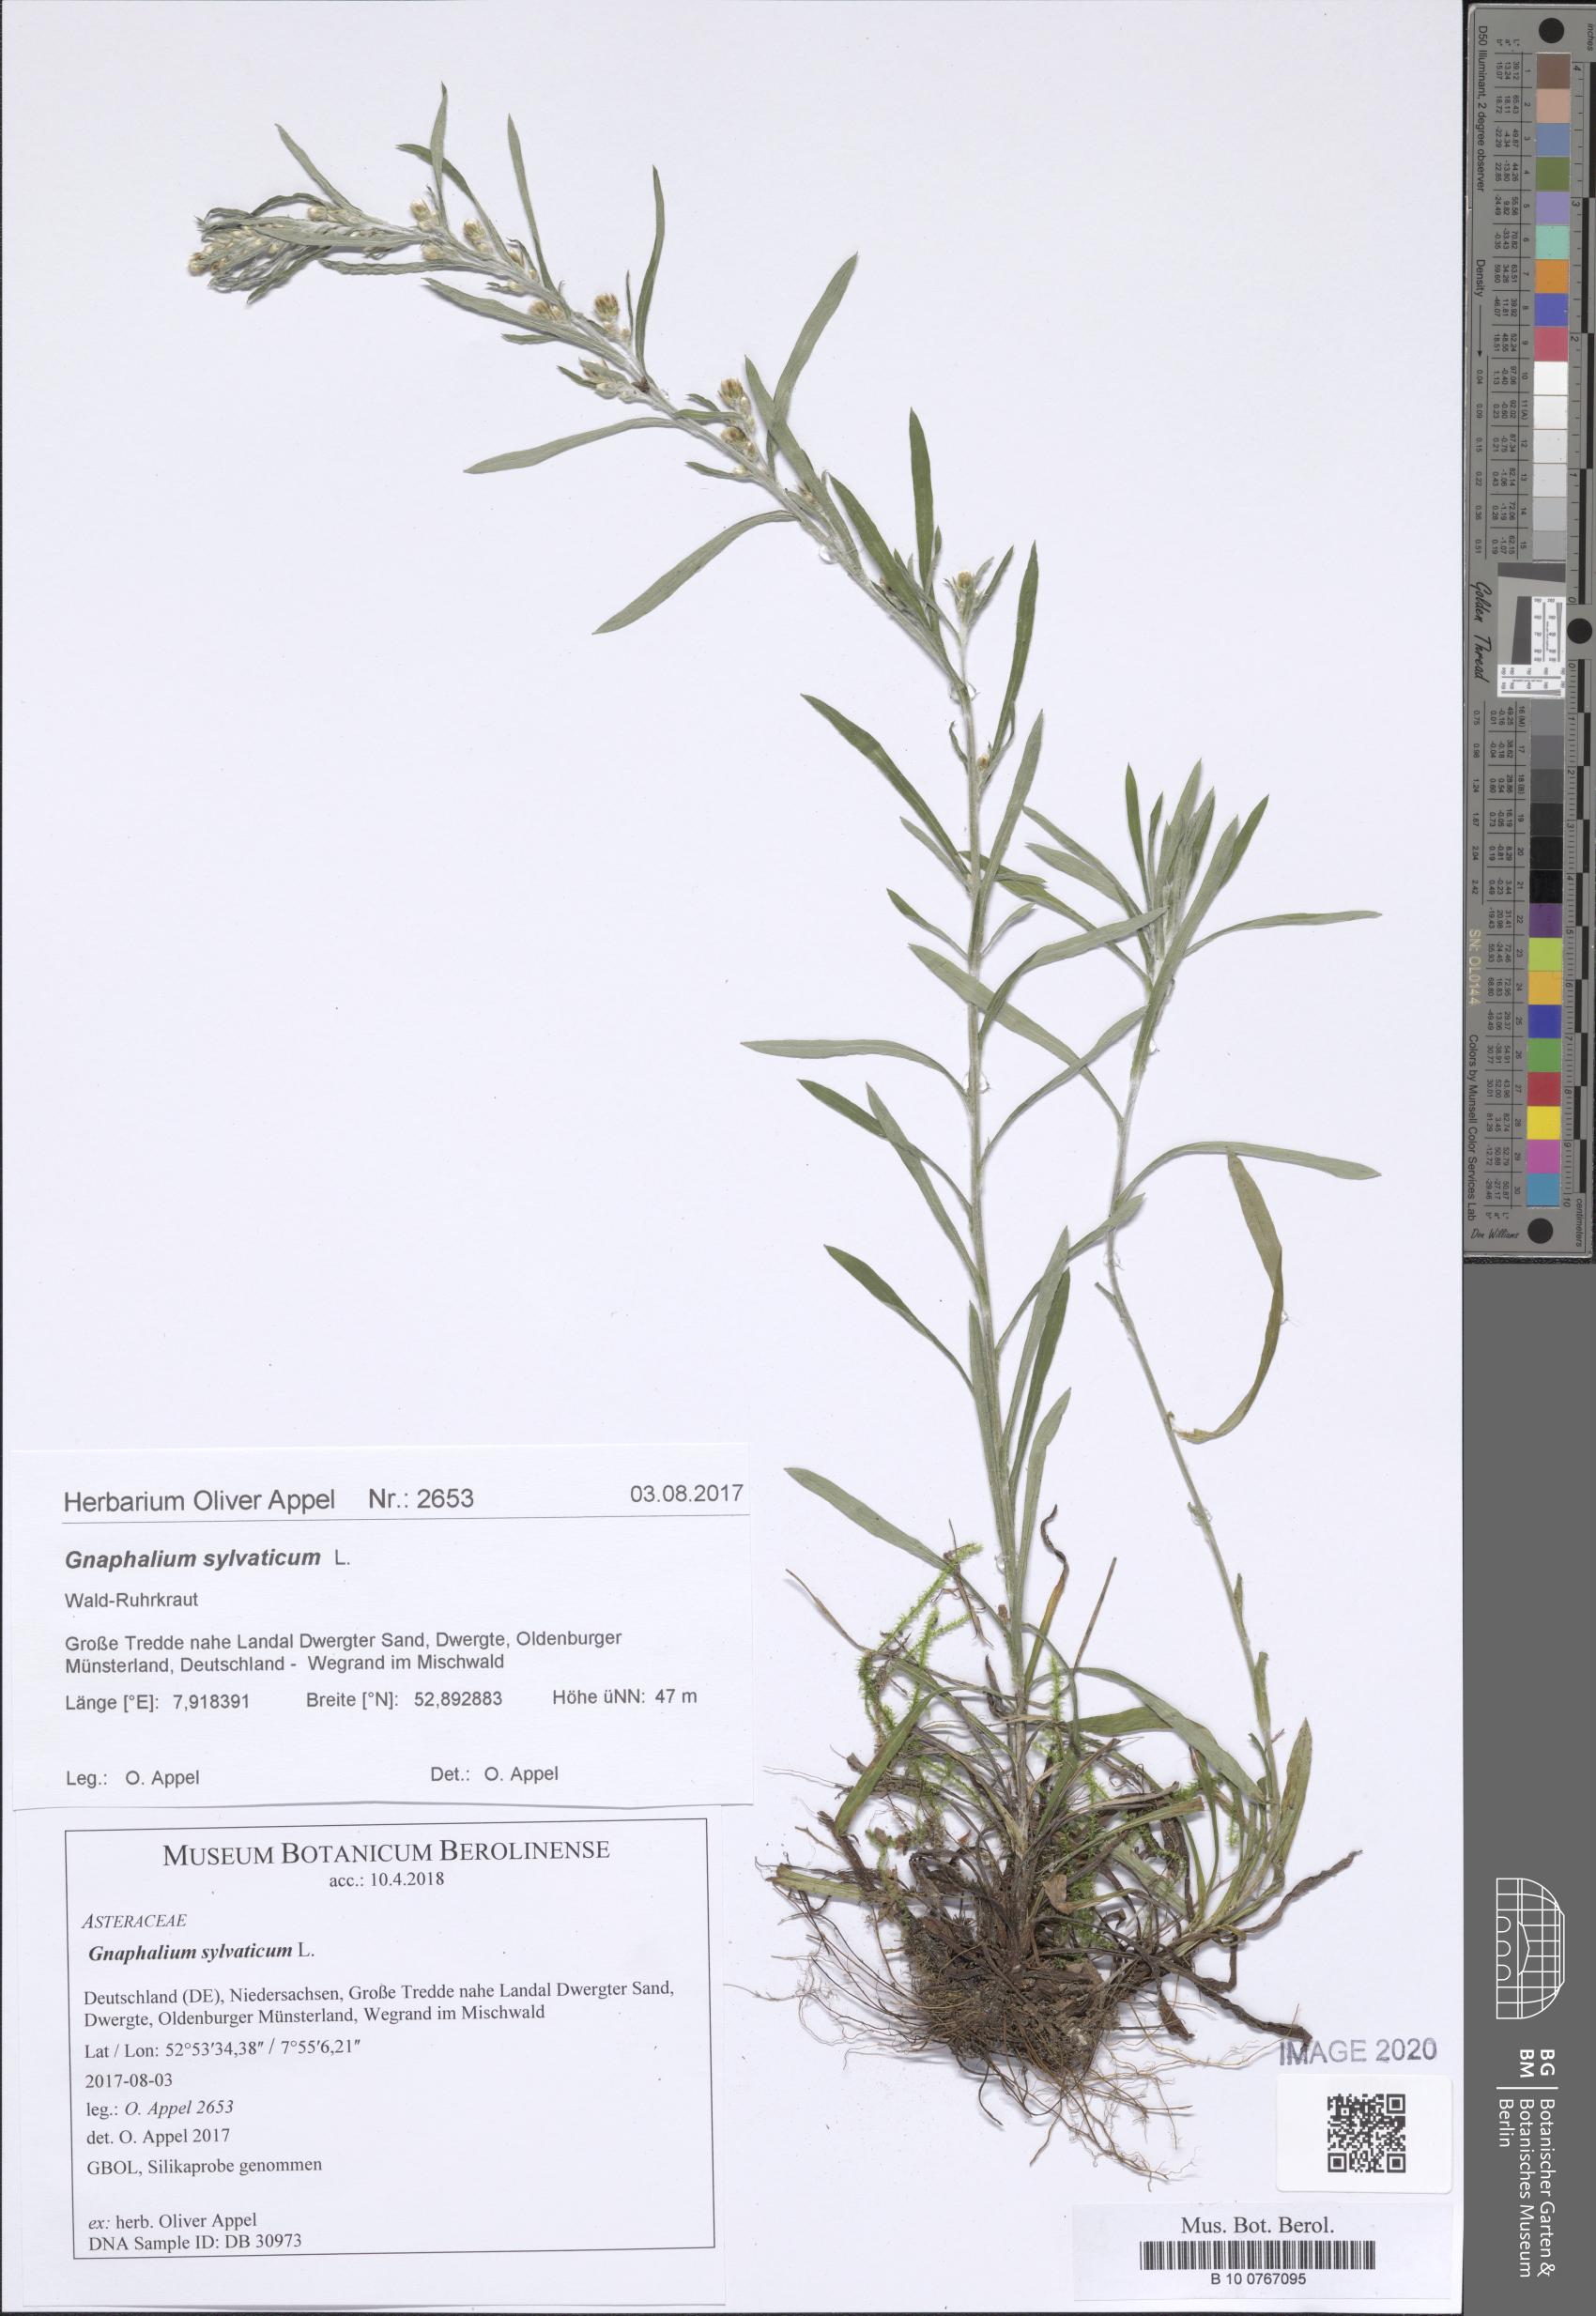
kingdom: Plantae
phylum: Tracheophyta
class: Magnoliopsida
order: Asterales
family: Asteraceae
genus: Omalotheca
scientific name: Omalotheca sylvatica
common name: Heath cudweed
